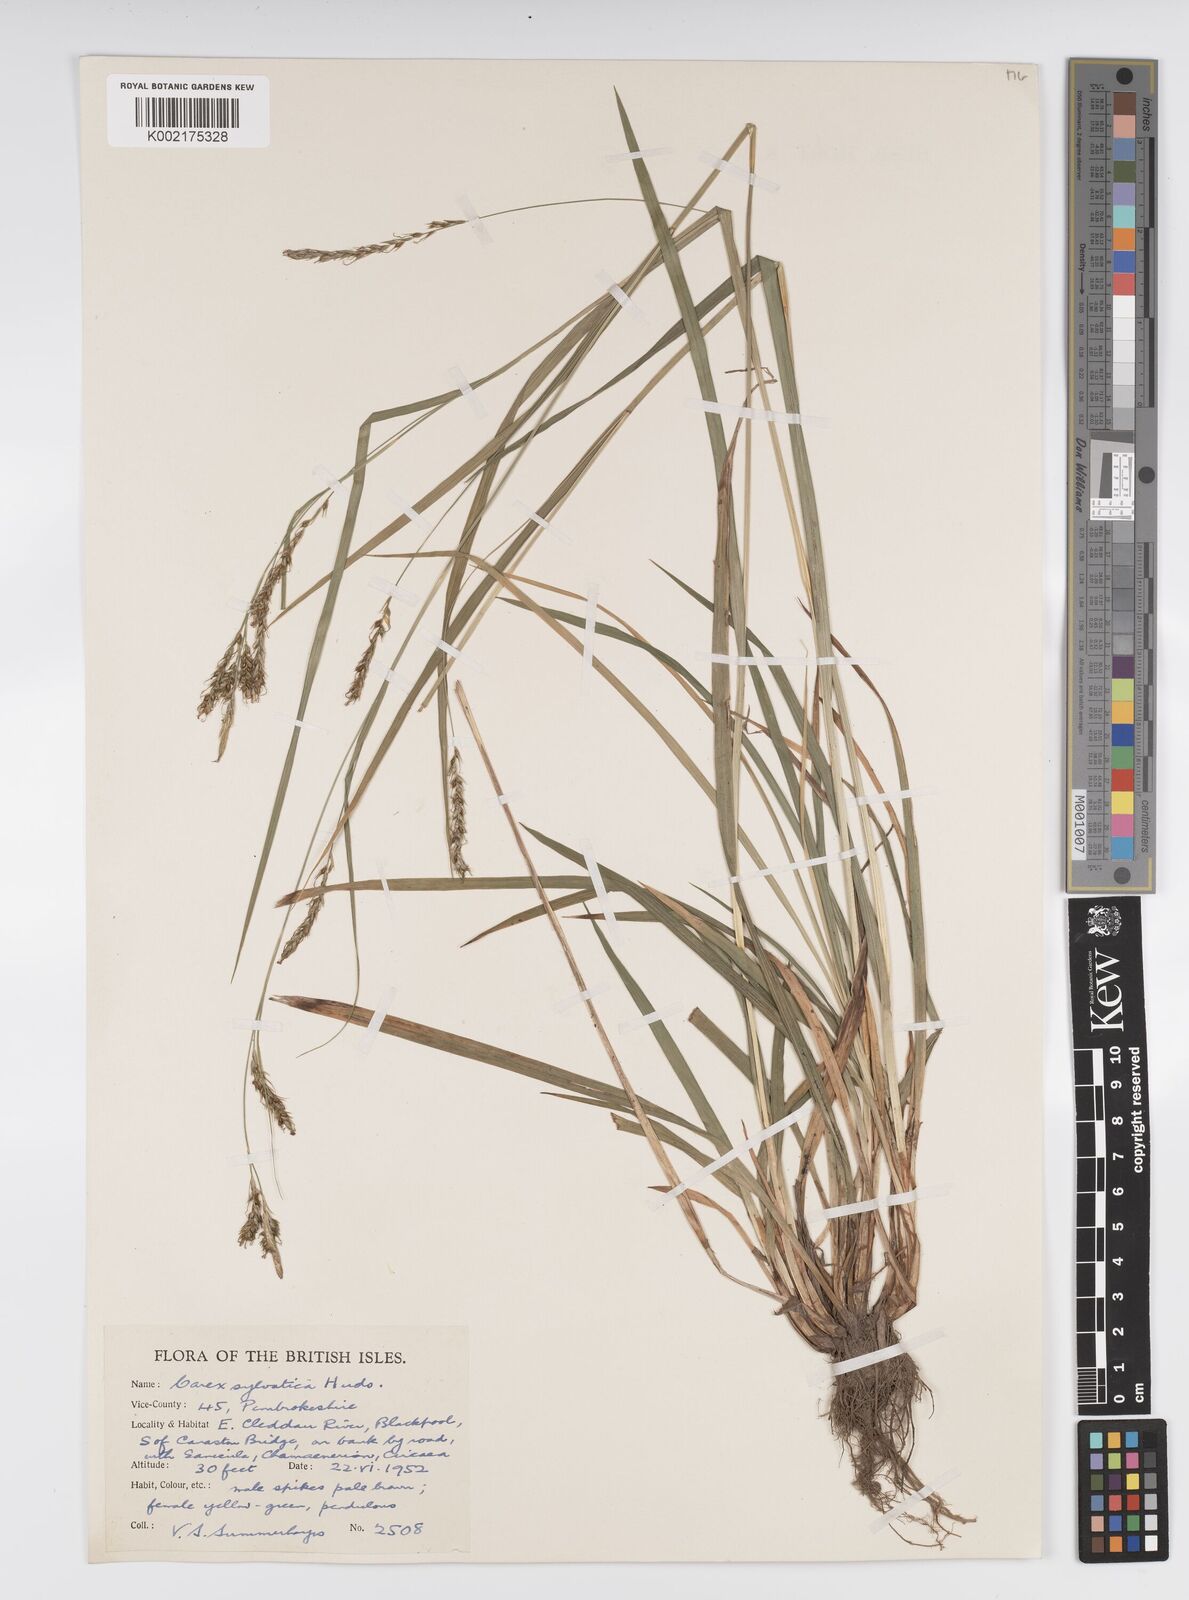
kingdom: Plantae
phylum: Tracheophyta
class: Liliopsida
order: Poales
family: Cyperaceae
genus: Carex
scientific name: Carex sylvatica
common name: Wood-sedge
